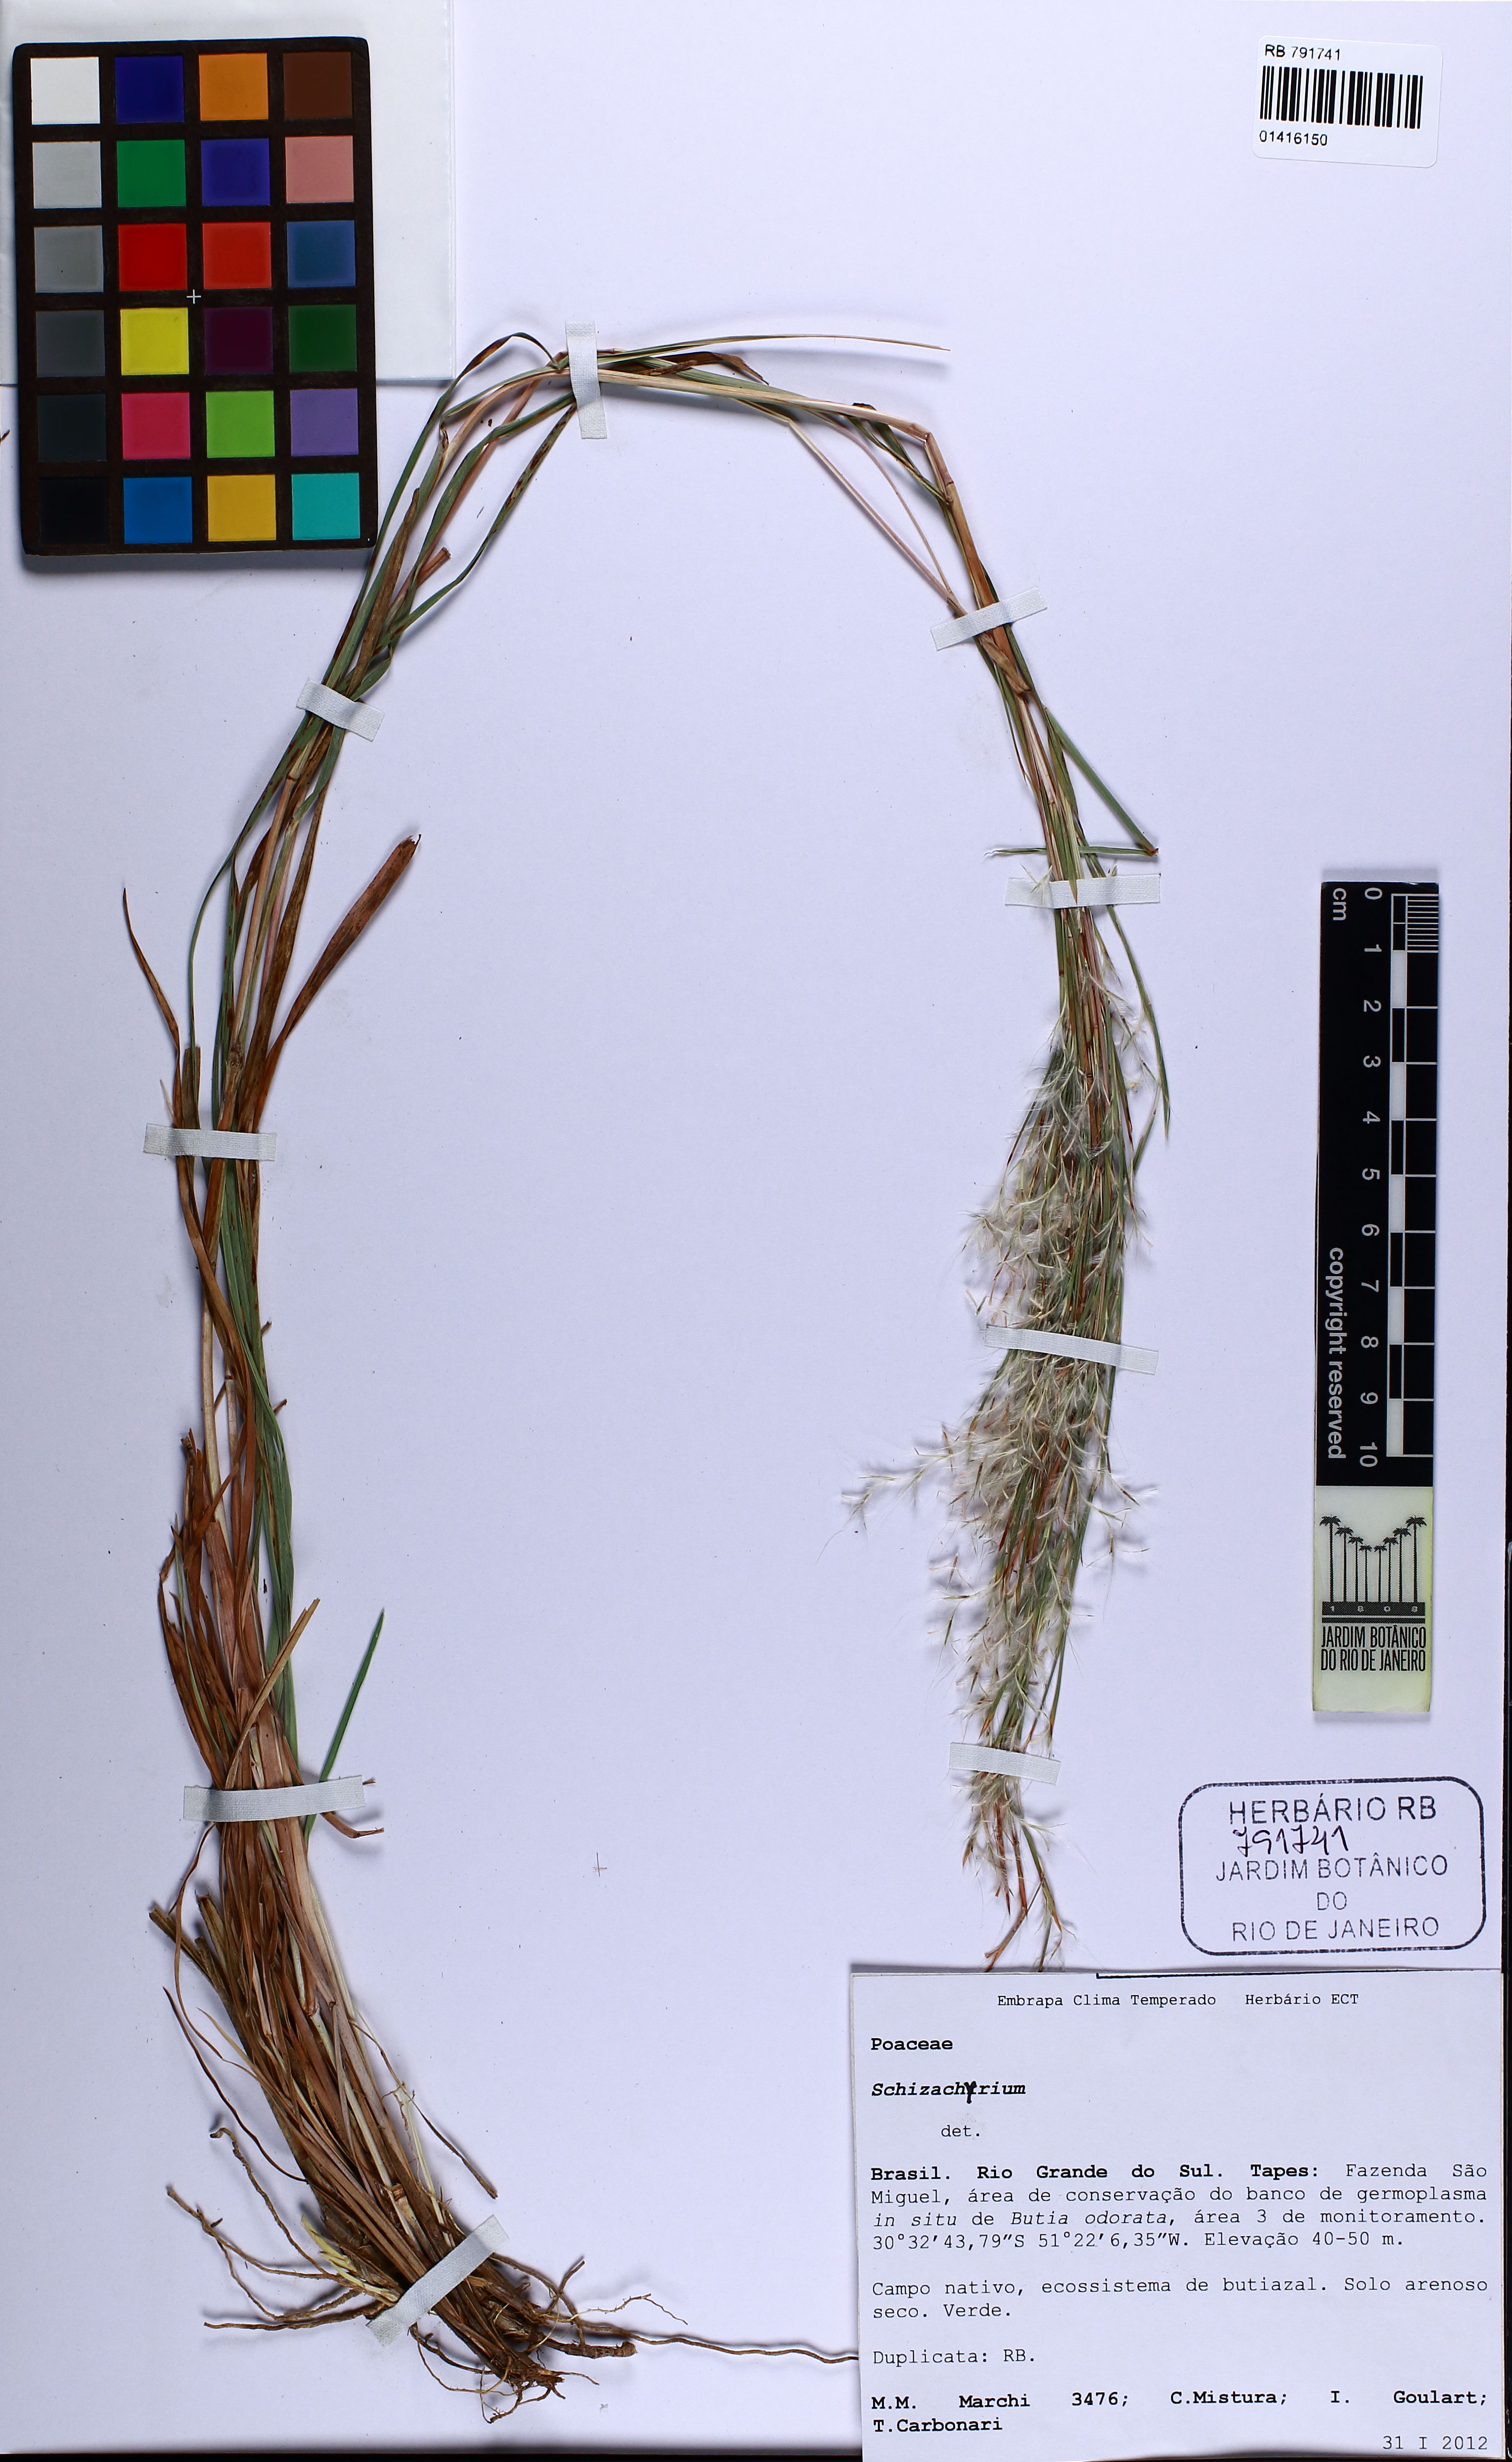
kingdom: Plantae
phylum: Tracheophyta
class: Liliopsida
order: Poales
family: Poaceae
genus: Schizachyrium
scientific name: Schizachyrium
